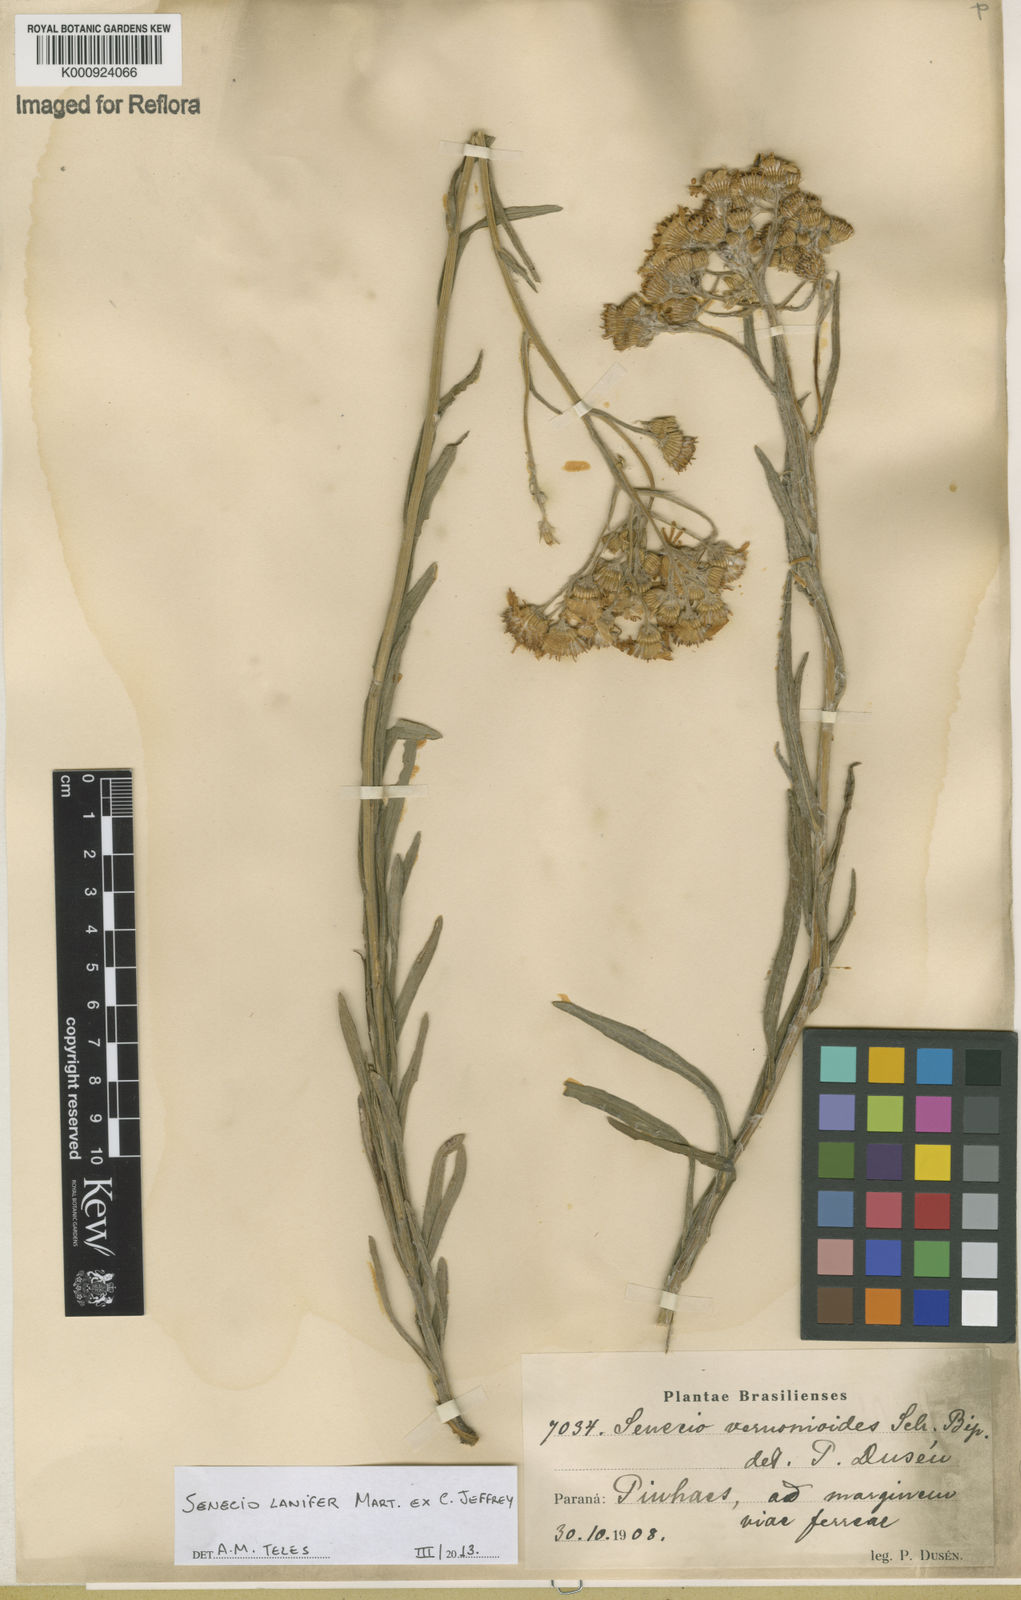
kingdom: Plantae
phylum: Tracheophyta
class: Magnoliopsida
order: Asterales
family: Asteraceae
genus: Senecio
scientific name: Senecio lanifer
